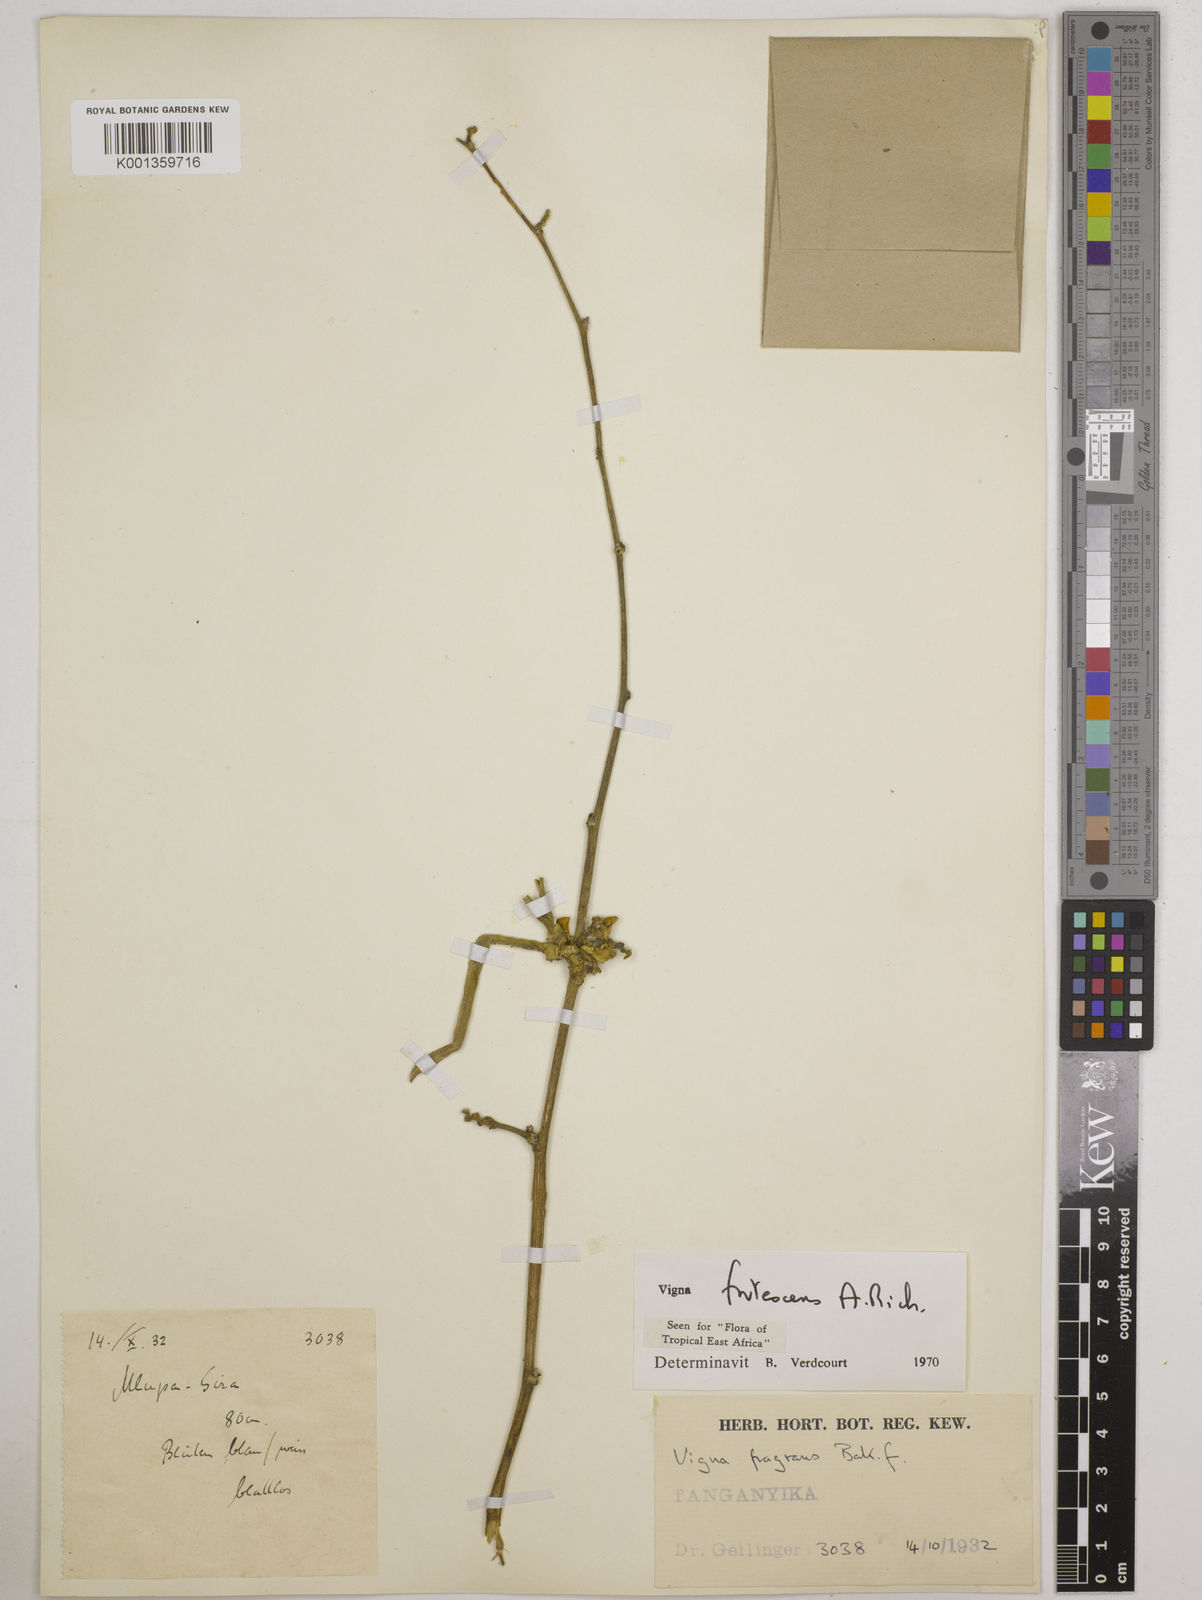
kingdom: Plantae
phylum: Tracheophyta
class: Magnoliopsida
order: Fabales
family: Fabaceae
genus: Vigna
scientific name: Vigna frutescens
